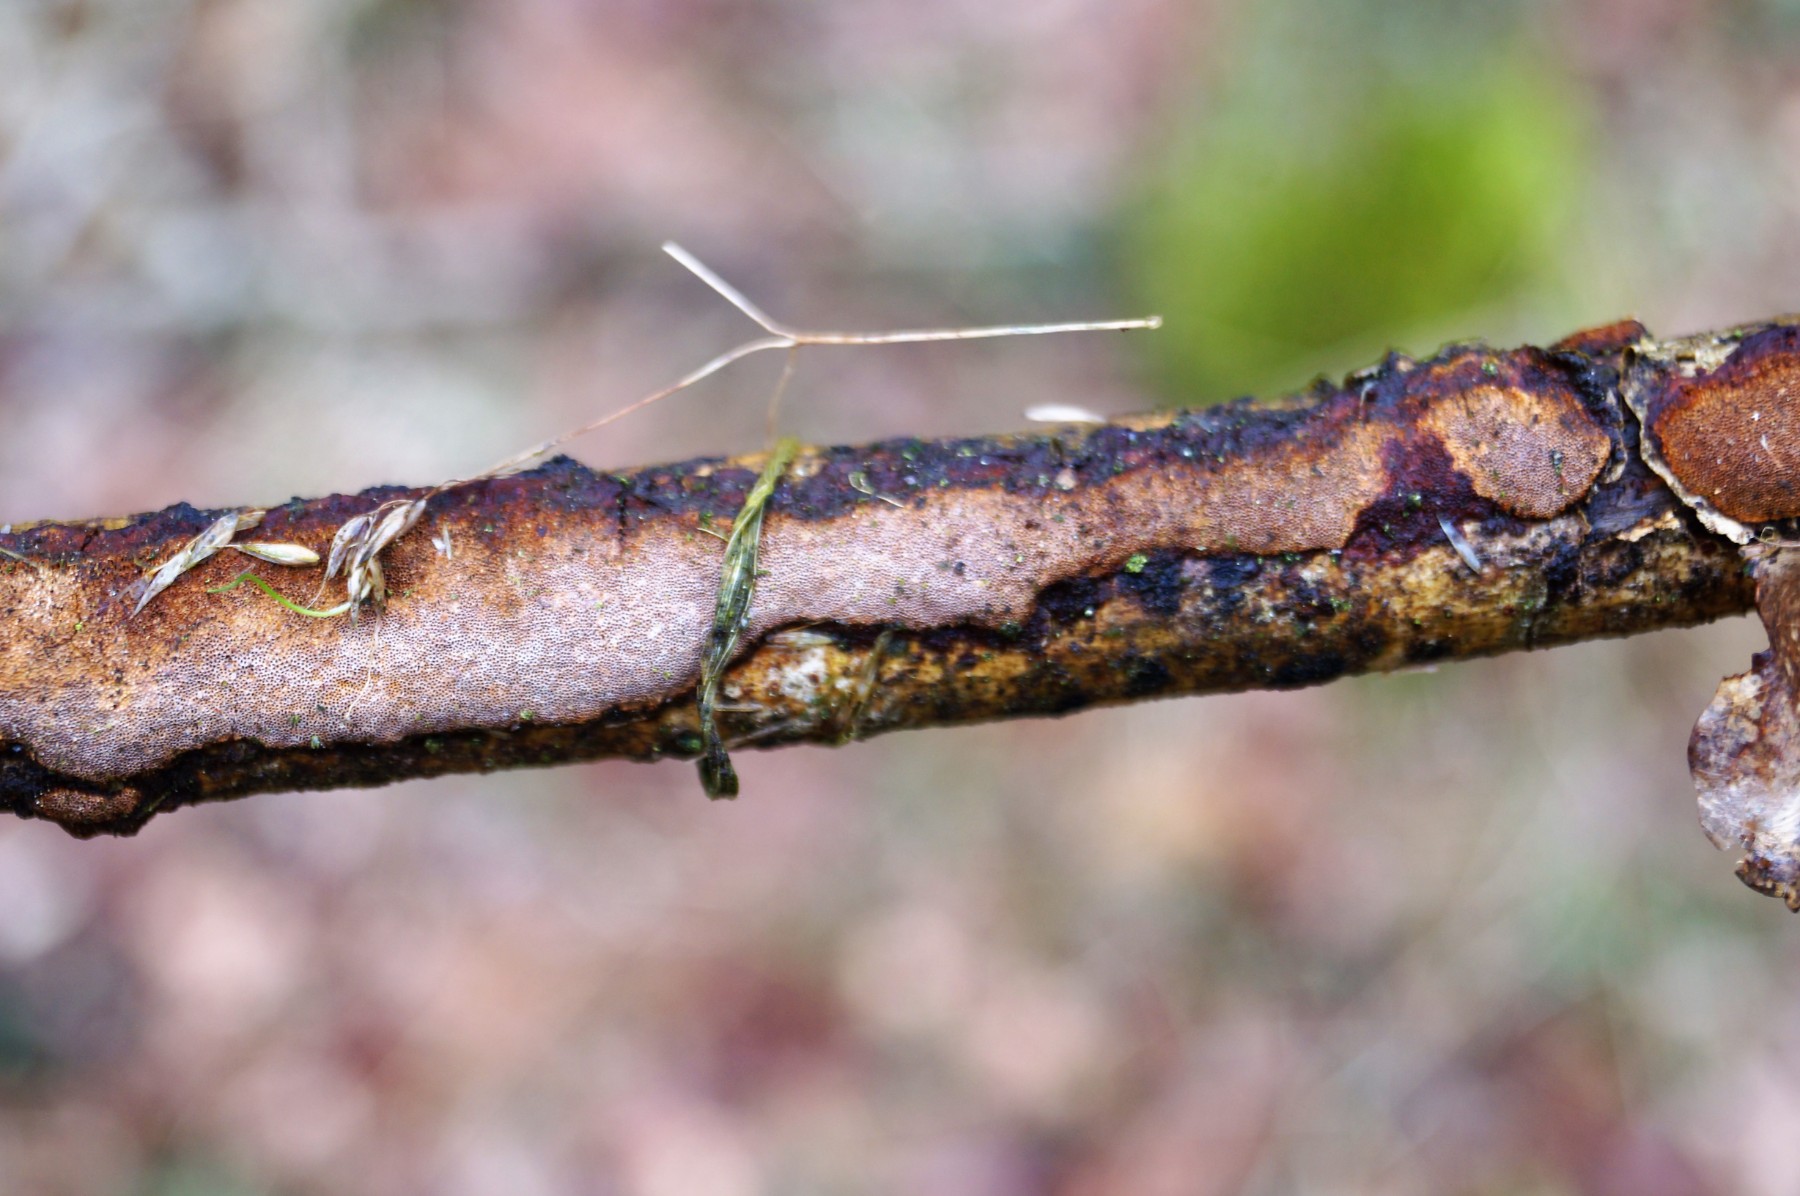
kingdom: Fungi
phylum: Basidiomycota
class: Agaricomycetes
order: Polyporales
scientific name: Polyporales
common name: poresvampordenen
